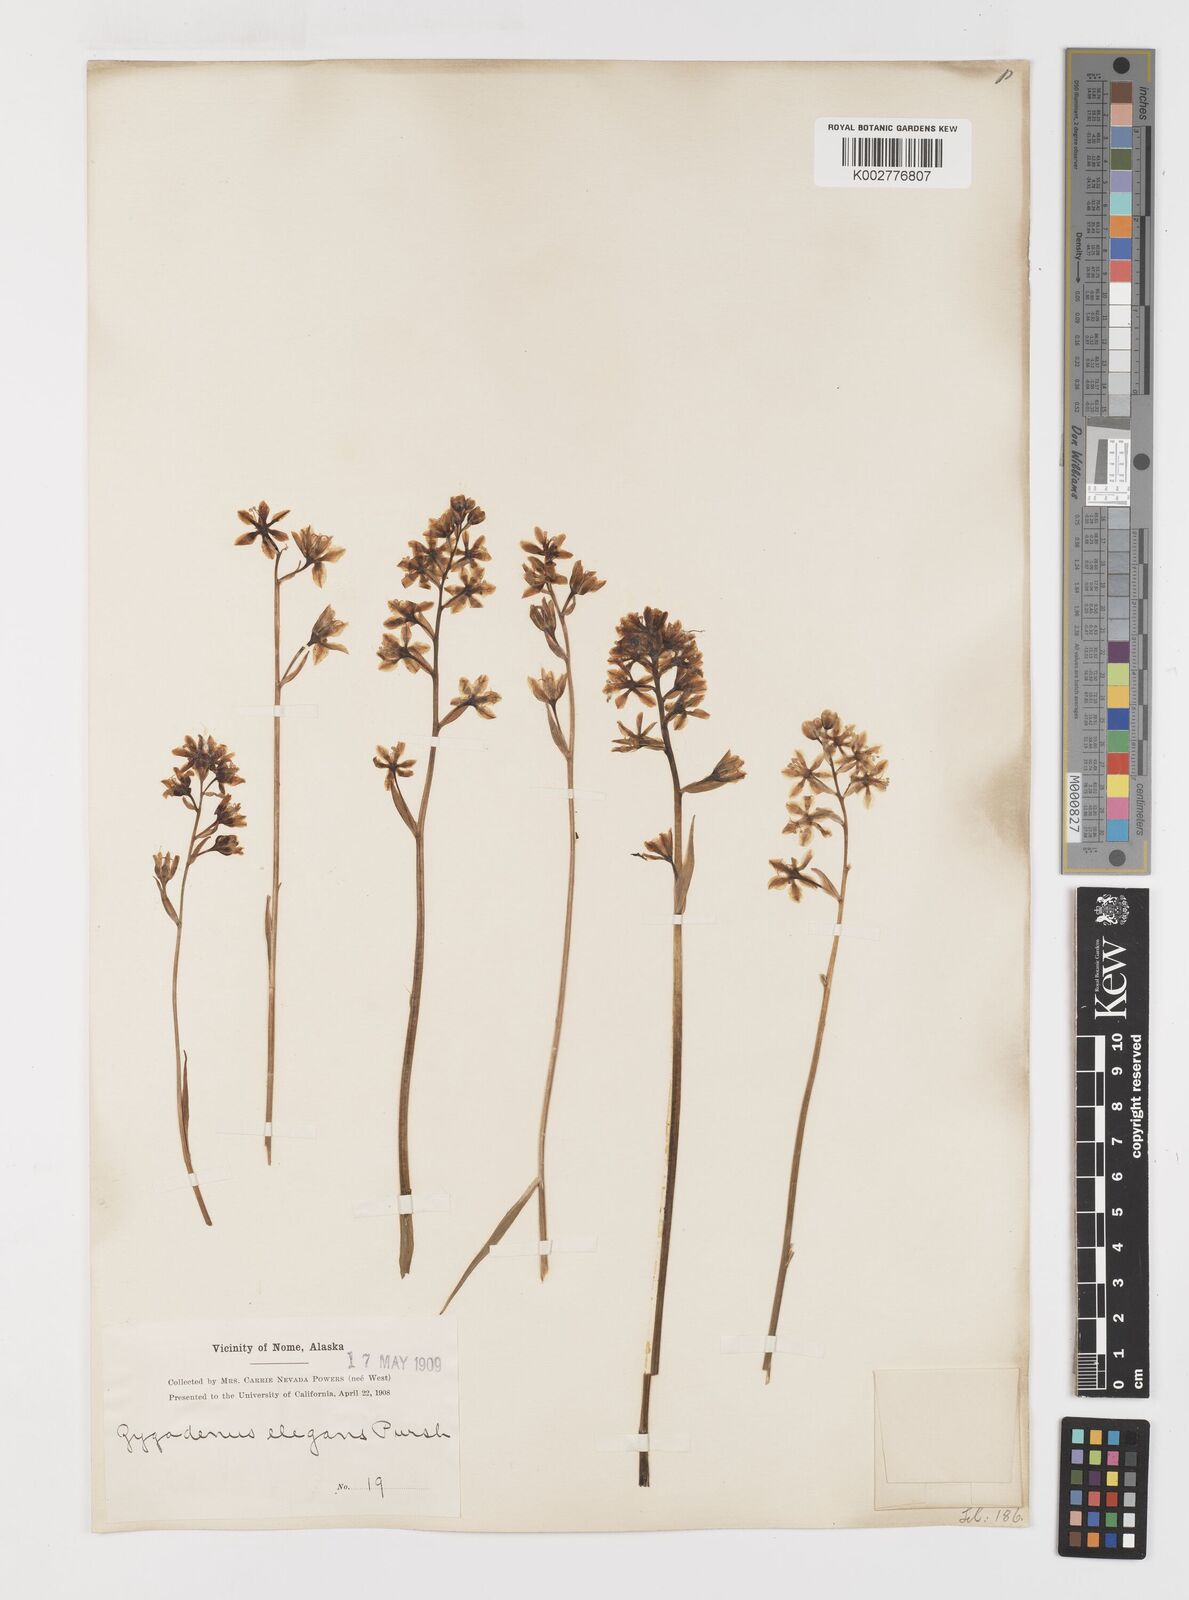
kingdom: Plantae
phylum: Tracheophyta
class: Liliopsida
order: Liliales
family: Melanthiaceae
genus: Anticlea
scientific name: Anticlea elegans
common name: Mountain death camas
